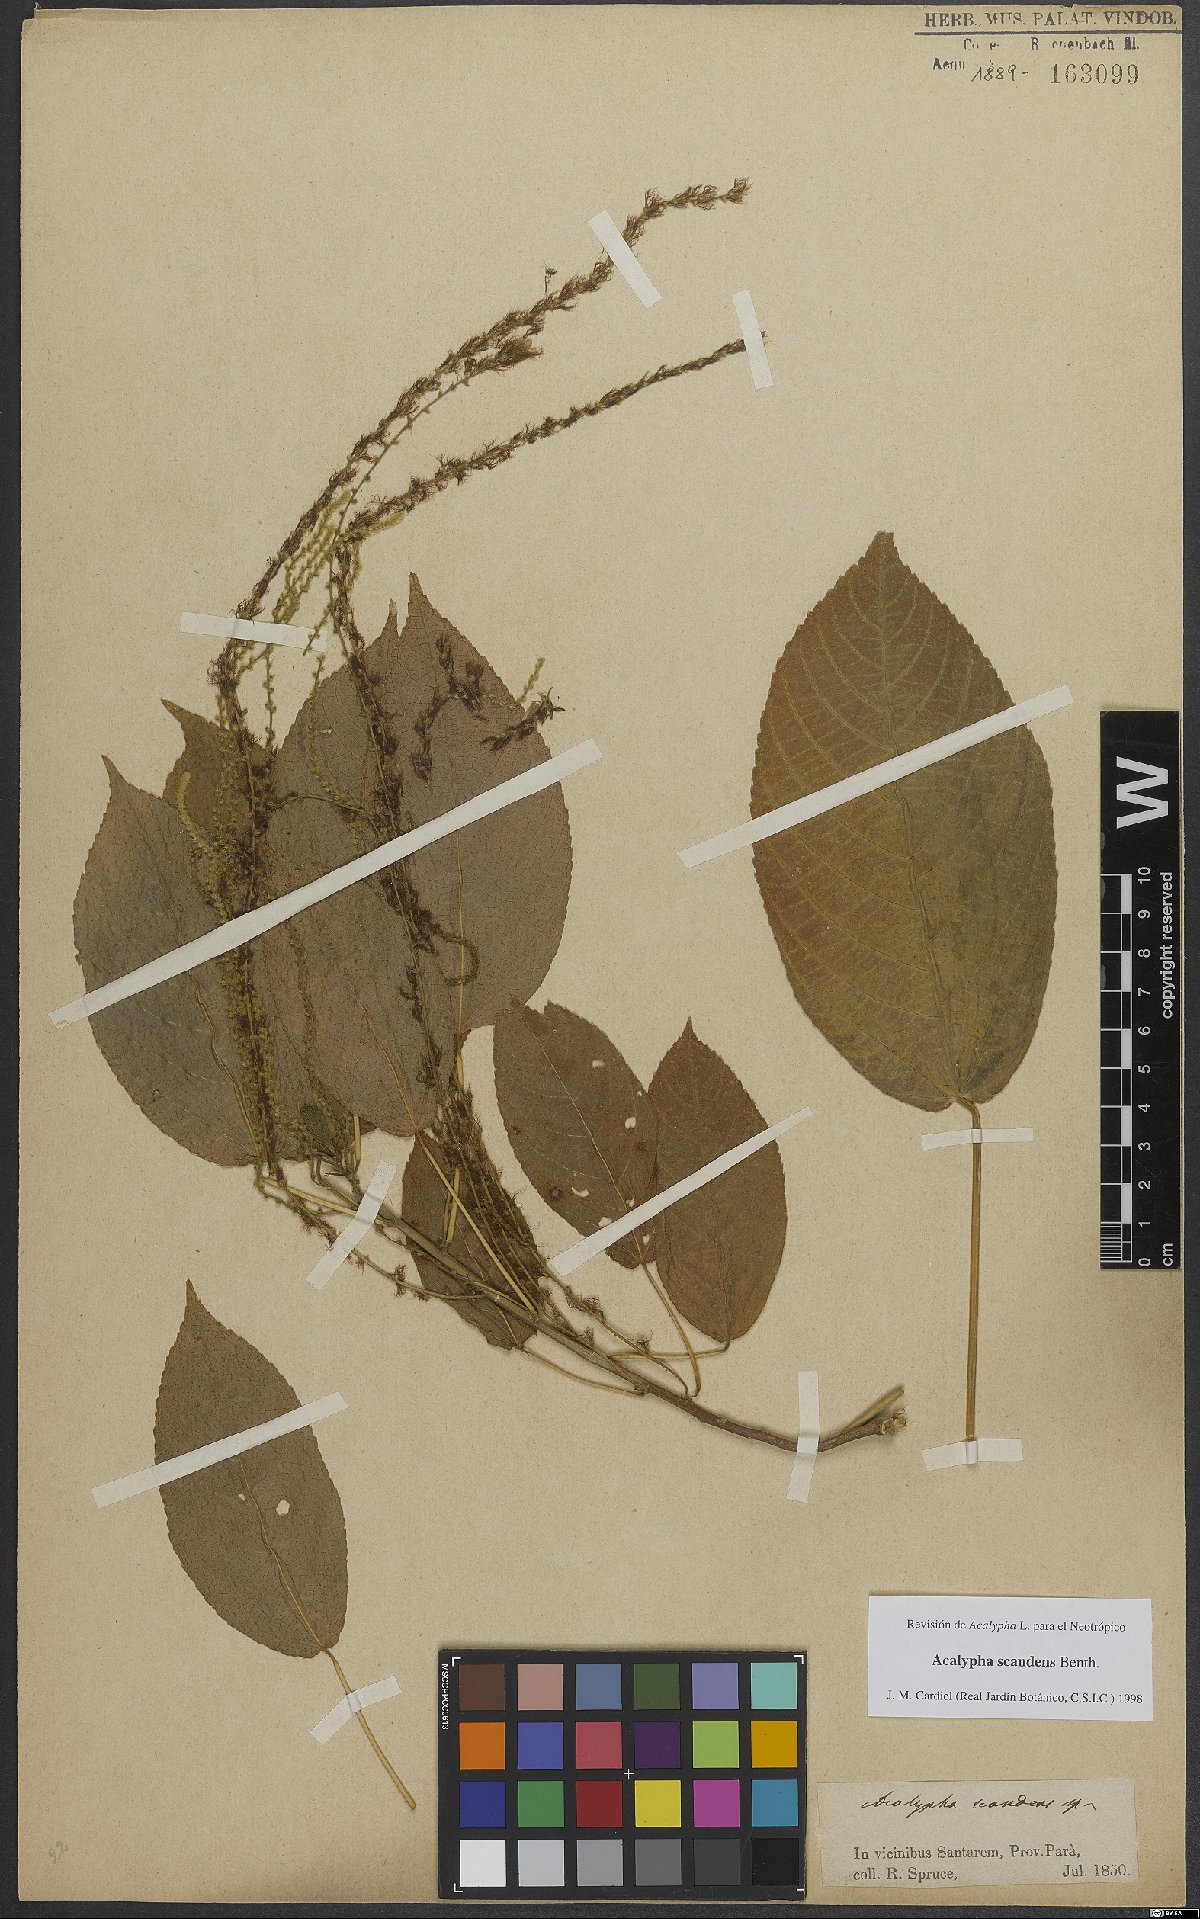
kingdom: Plantae
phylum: Tracheophyta
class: Magnoliopsida
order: Malpighiales
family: Euphorbiaceae
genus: Acalypha
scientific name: Acalypha scandens
